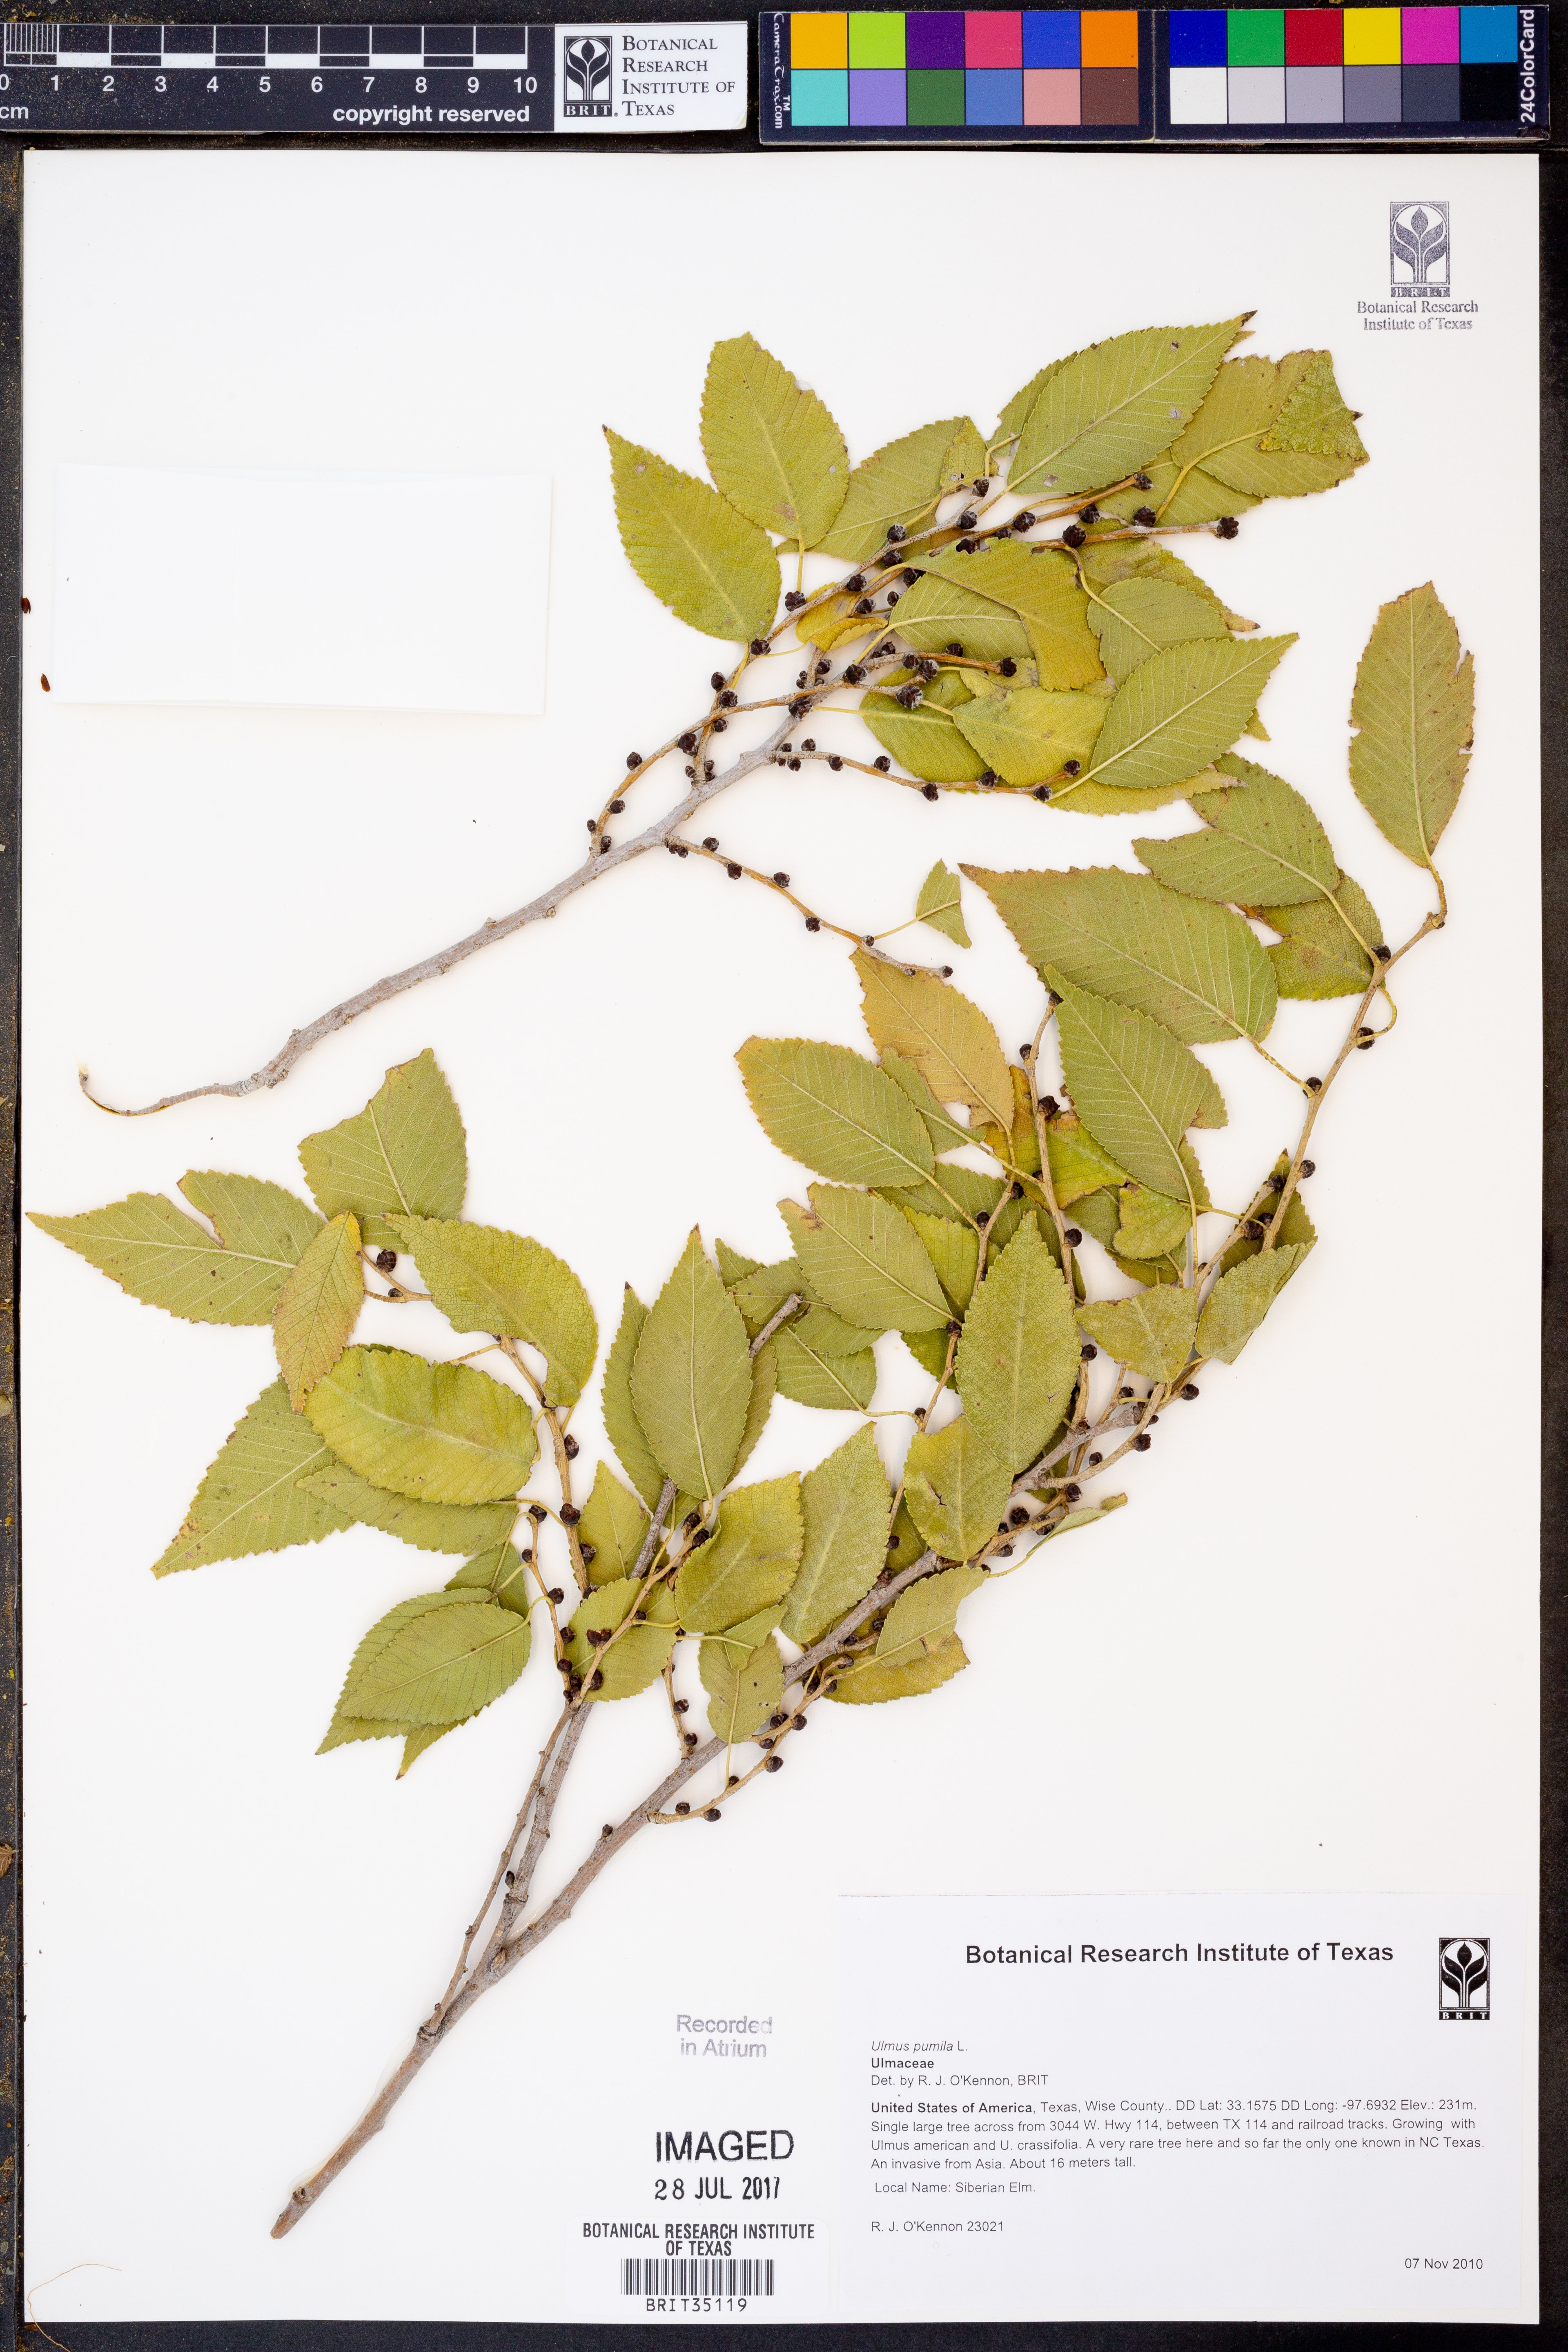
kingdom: Plantae
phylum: Tracheophyta
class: Magnoliopsida
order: Rosales
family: Ulmaceae
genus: Ulmus
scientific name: Ulmus pumila
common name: Siberian elm
